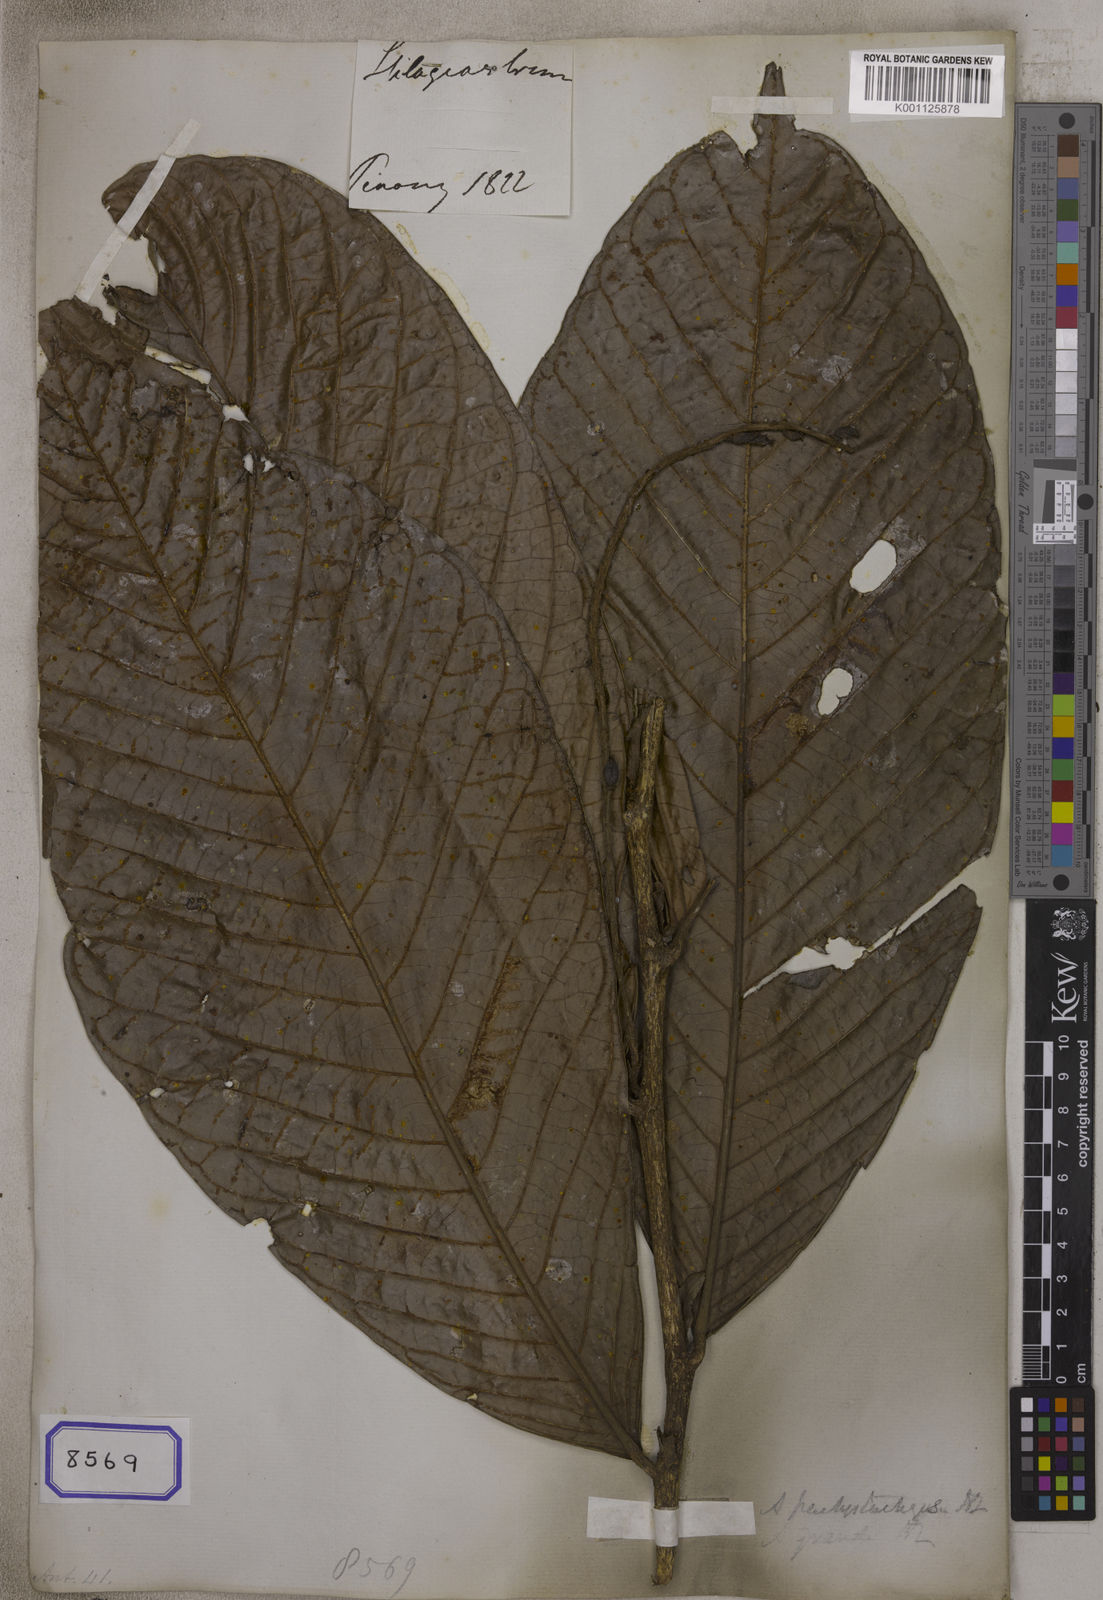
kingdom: Plantae
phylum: Tracheophyta
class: Magnoliopsida
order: Malpighiales
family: Phyllanthaceae
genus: Antidesma
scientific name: Antidesma
